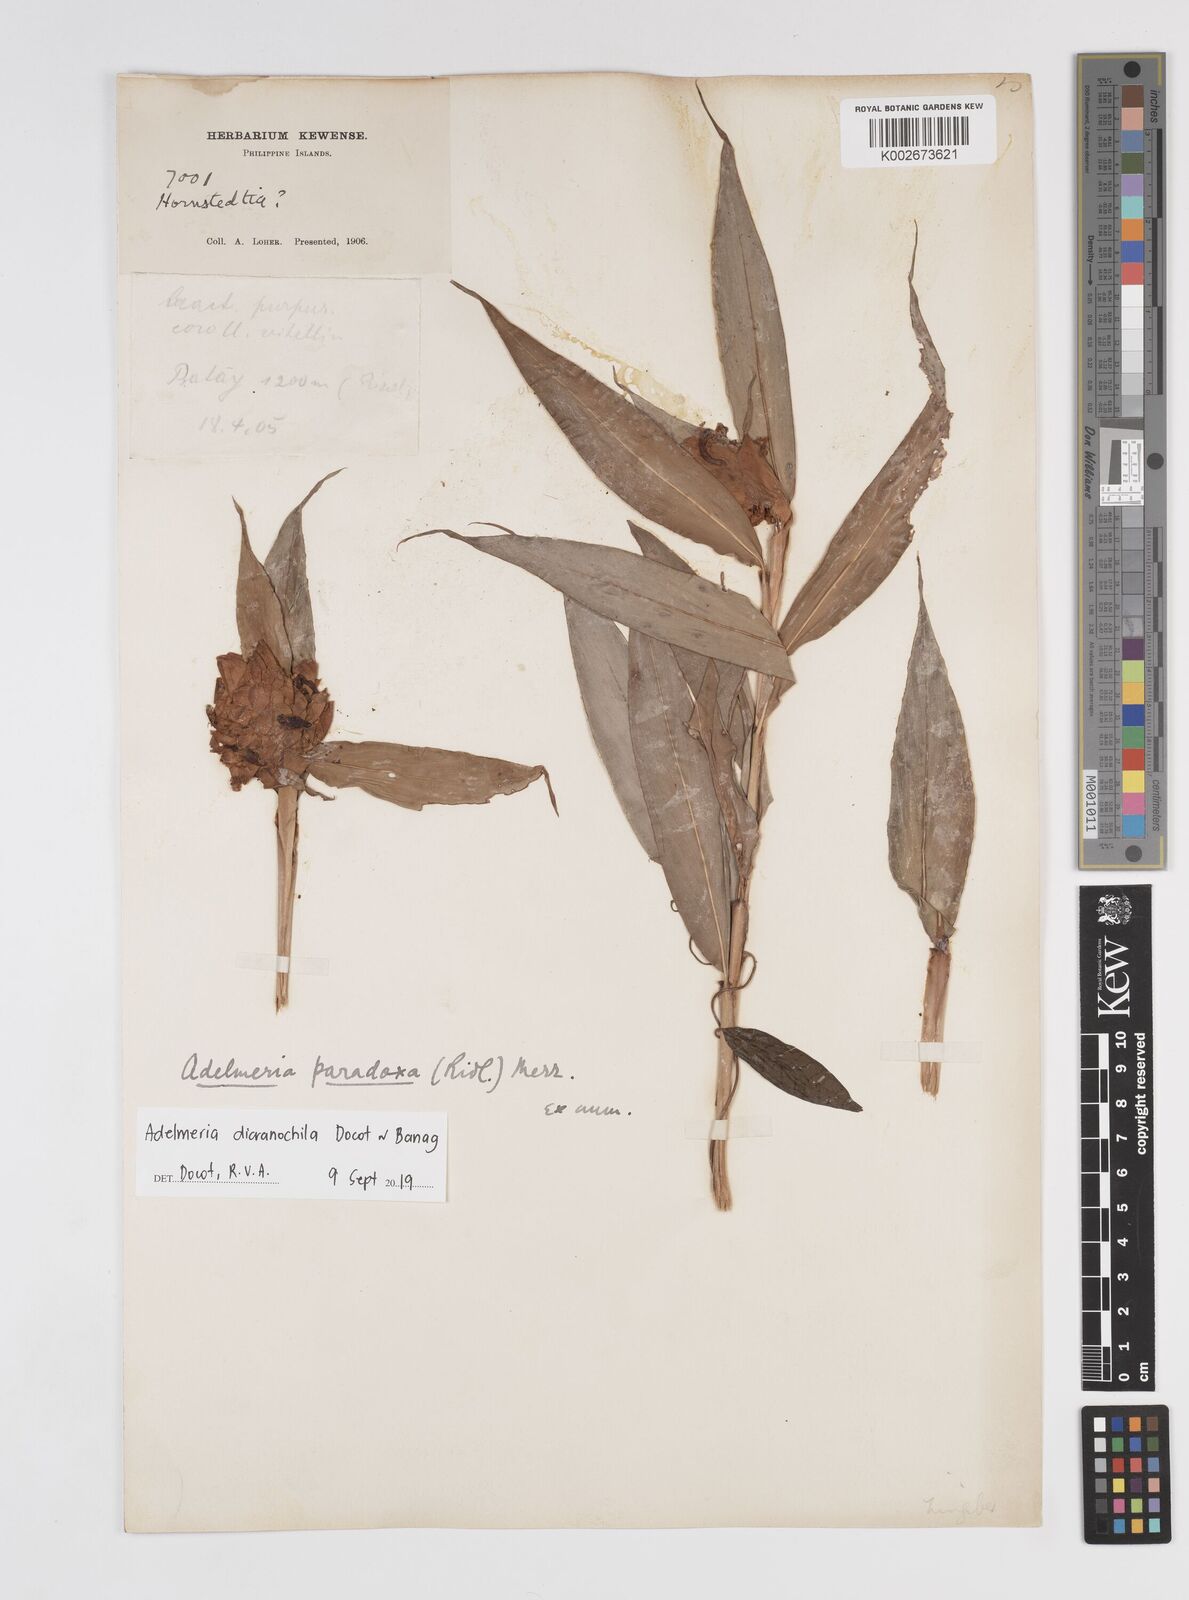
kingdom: Plantae
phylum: Tracheophyta
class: Liliopsida
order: Zingiberales
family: Zingiberaceae
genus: Adelmeria
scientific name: Adelmeria dicranochila
